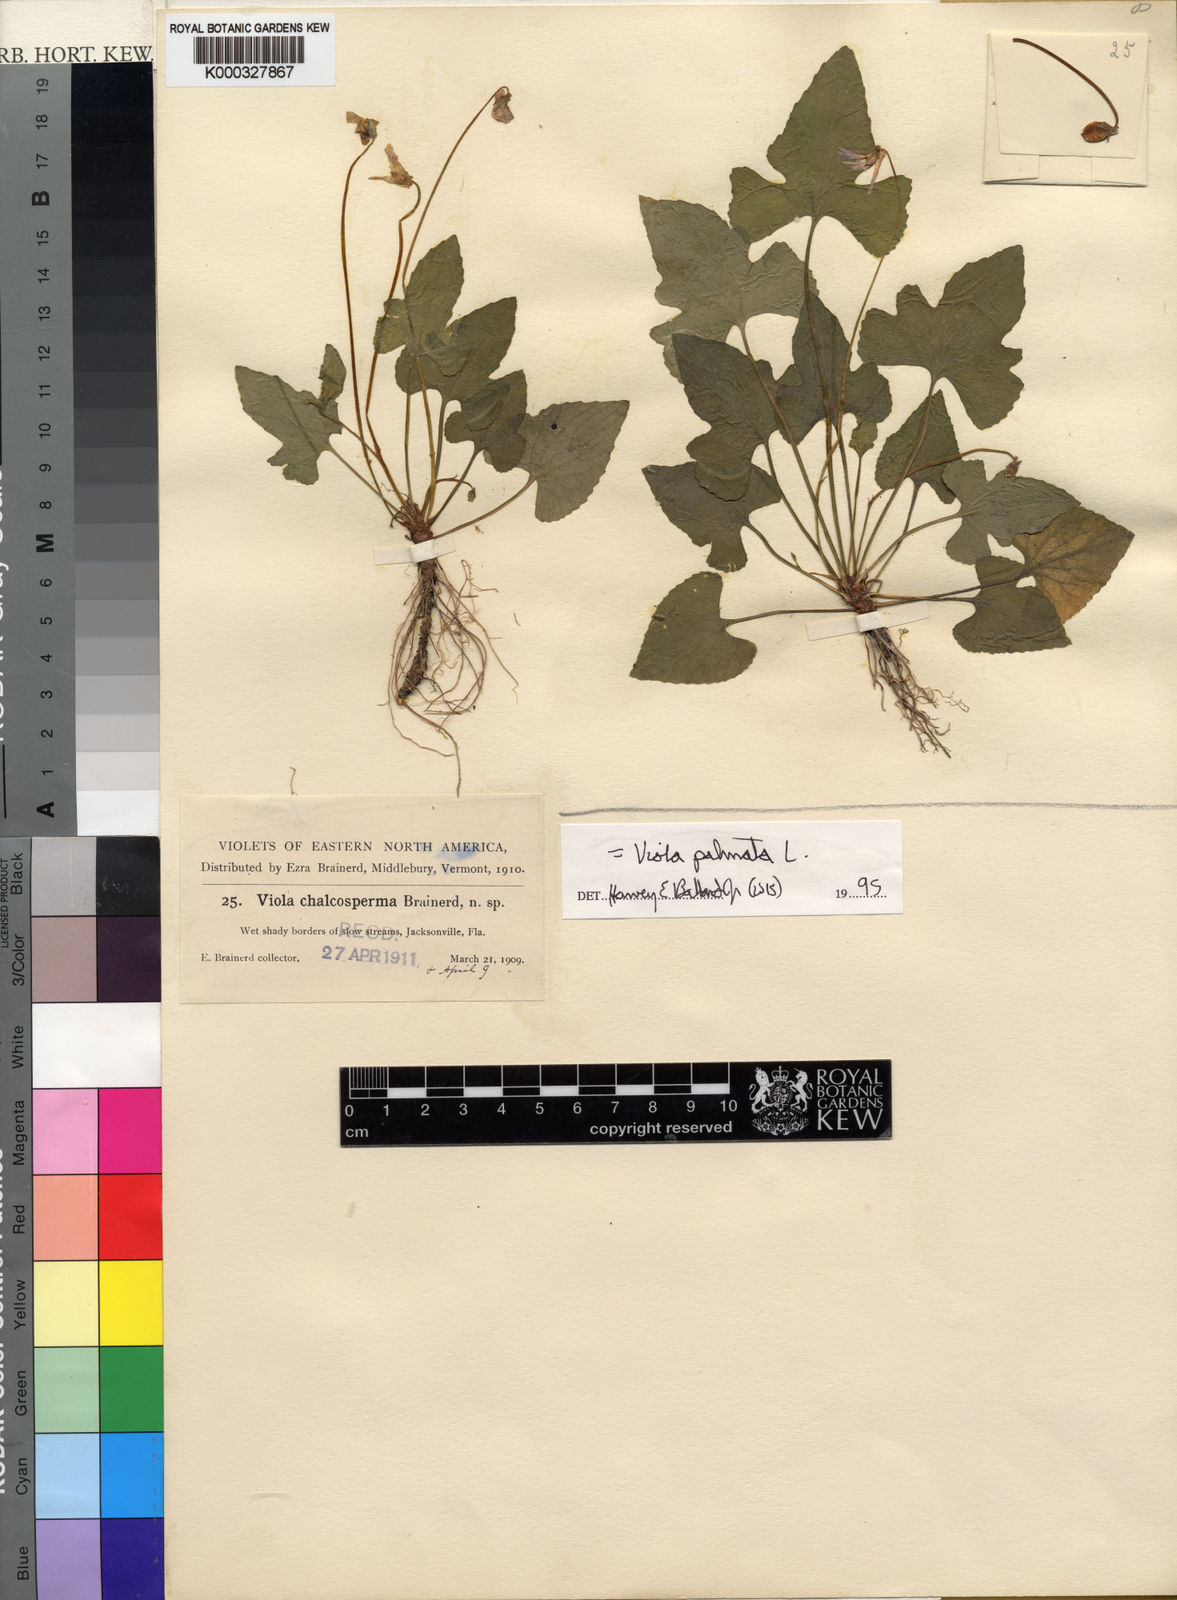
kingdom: Plantae
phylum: Tracheophyta
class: Magnoliopsida
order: Malpighiales
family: Violaceae
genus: Viola
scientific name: Viola chalcosperma
